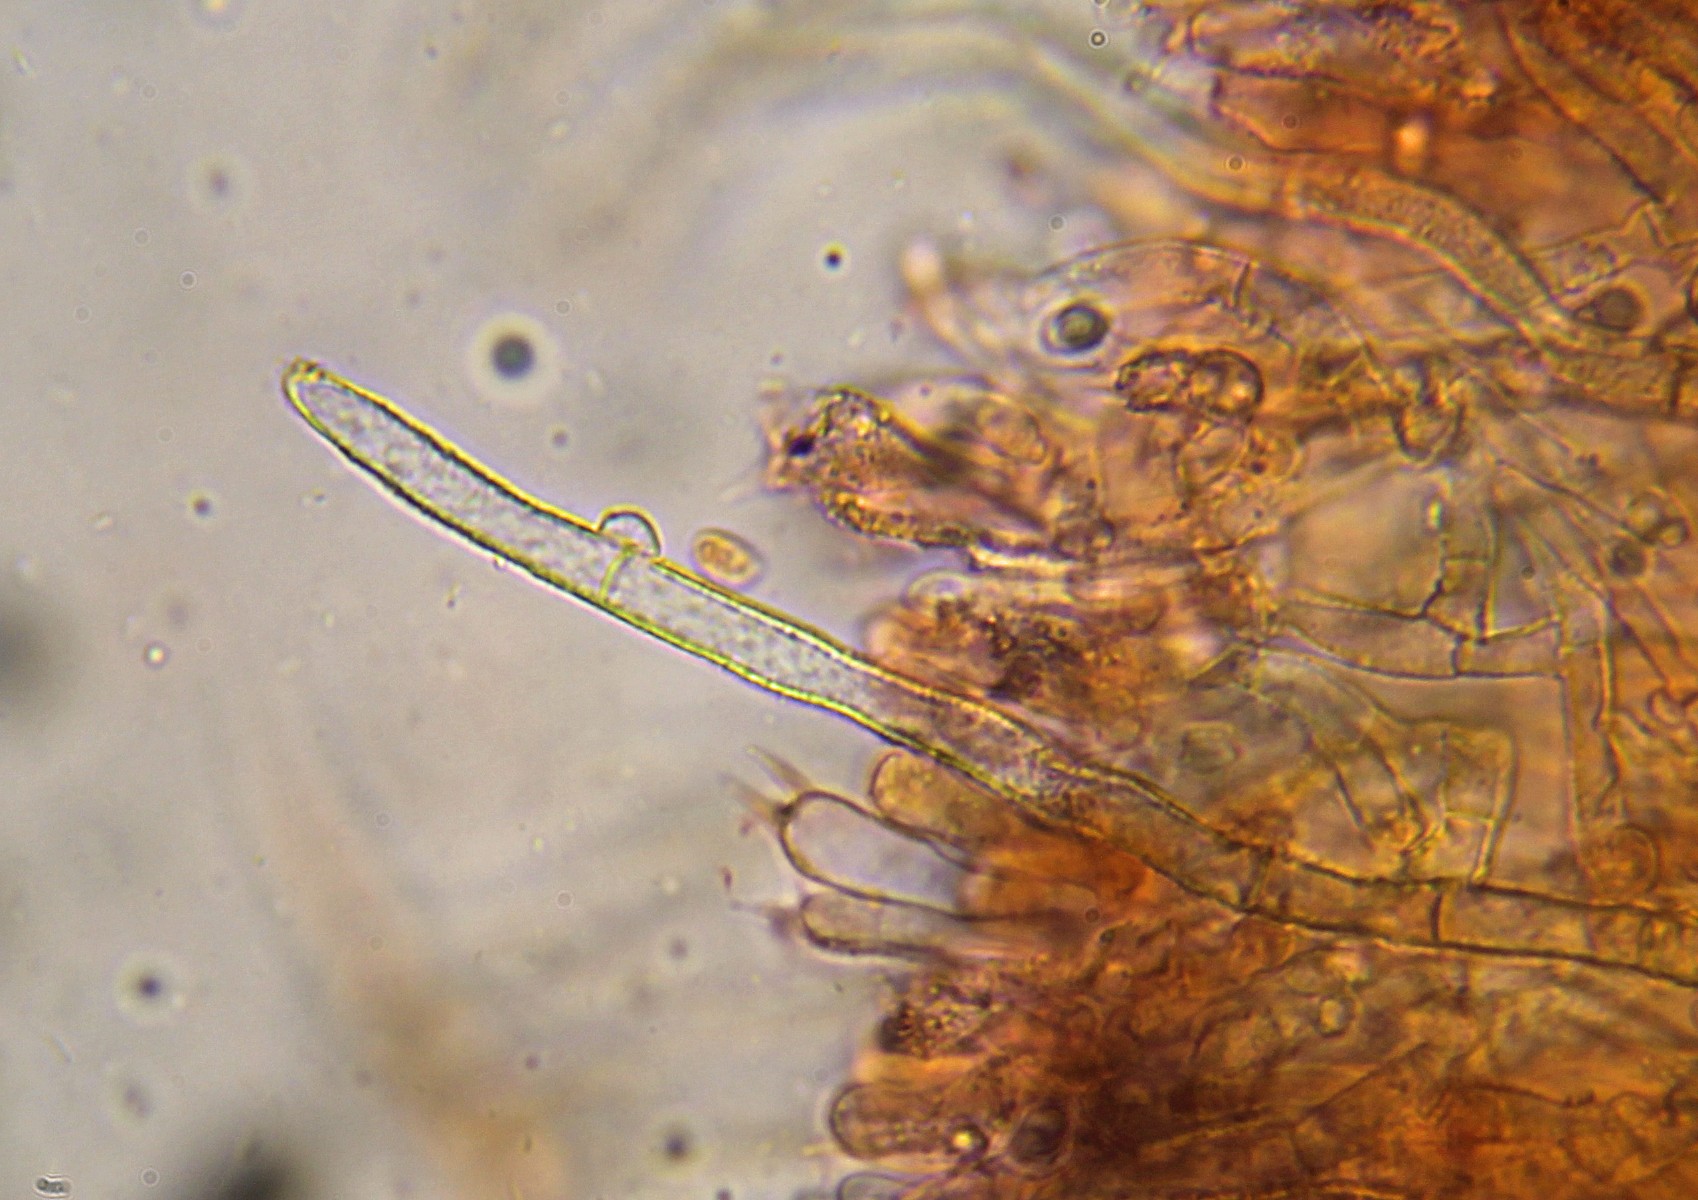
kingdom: Fungi
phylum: Basidiomycota
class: Agaricomycetes
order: Atheliales
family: Atheliaceae
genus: Amphinema
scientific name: Amphinema byssoides
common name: almindelig rodhinde
